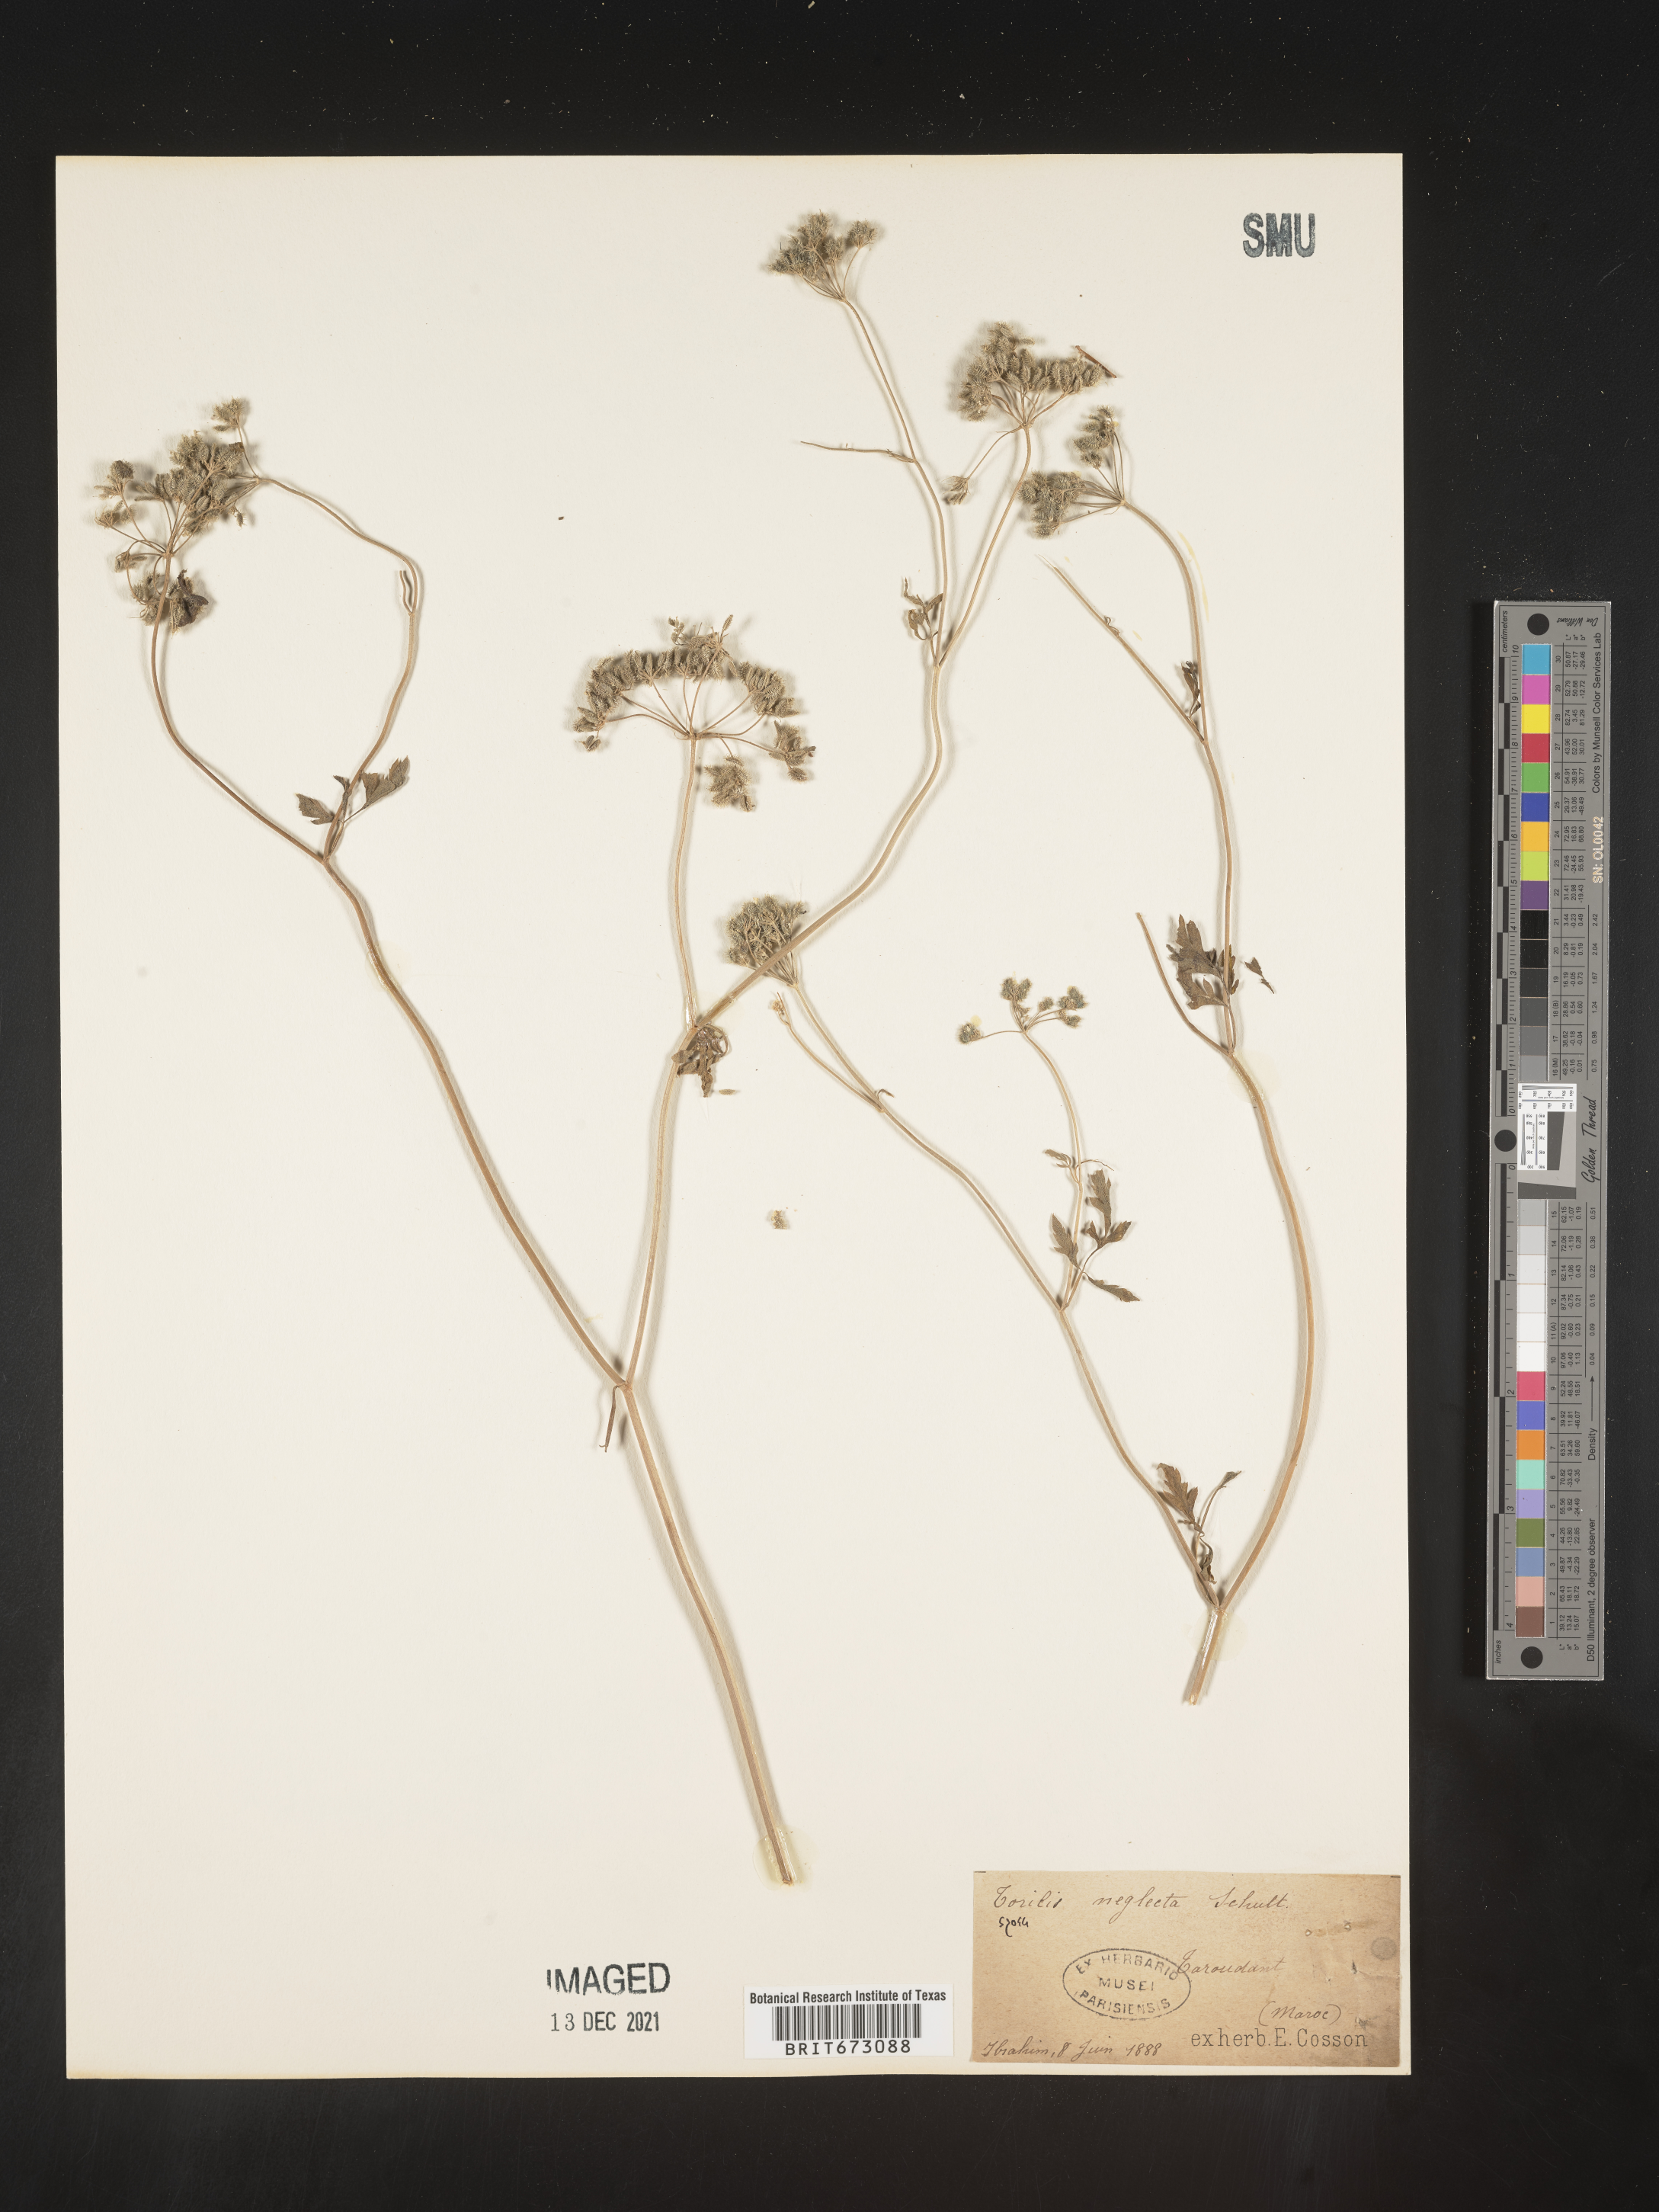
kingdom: Plantae
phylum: Tracheophyta
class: Magnoliopsida
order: Apiales
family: Apiaceae
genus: Torilis
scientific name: Torilis
